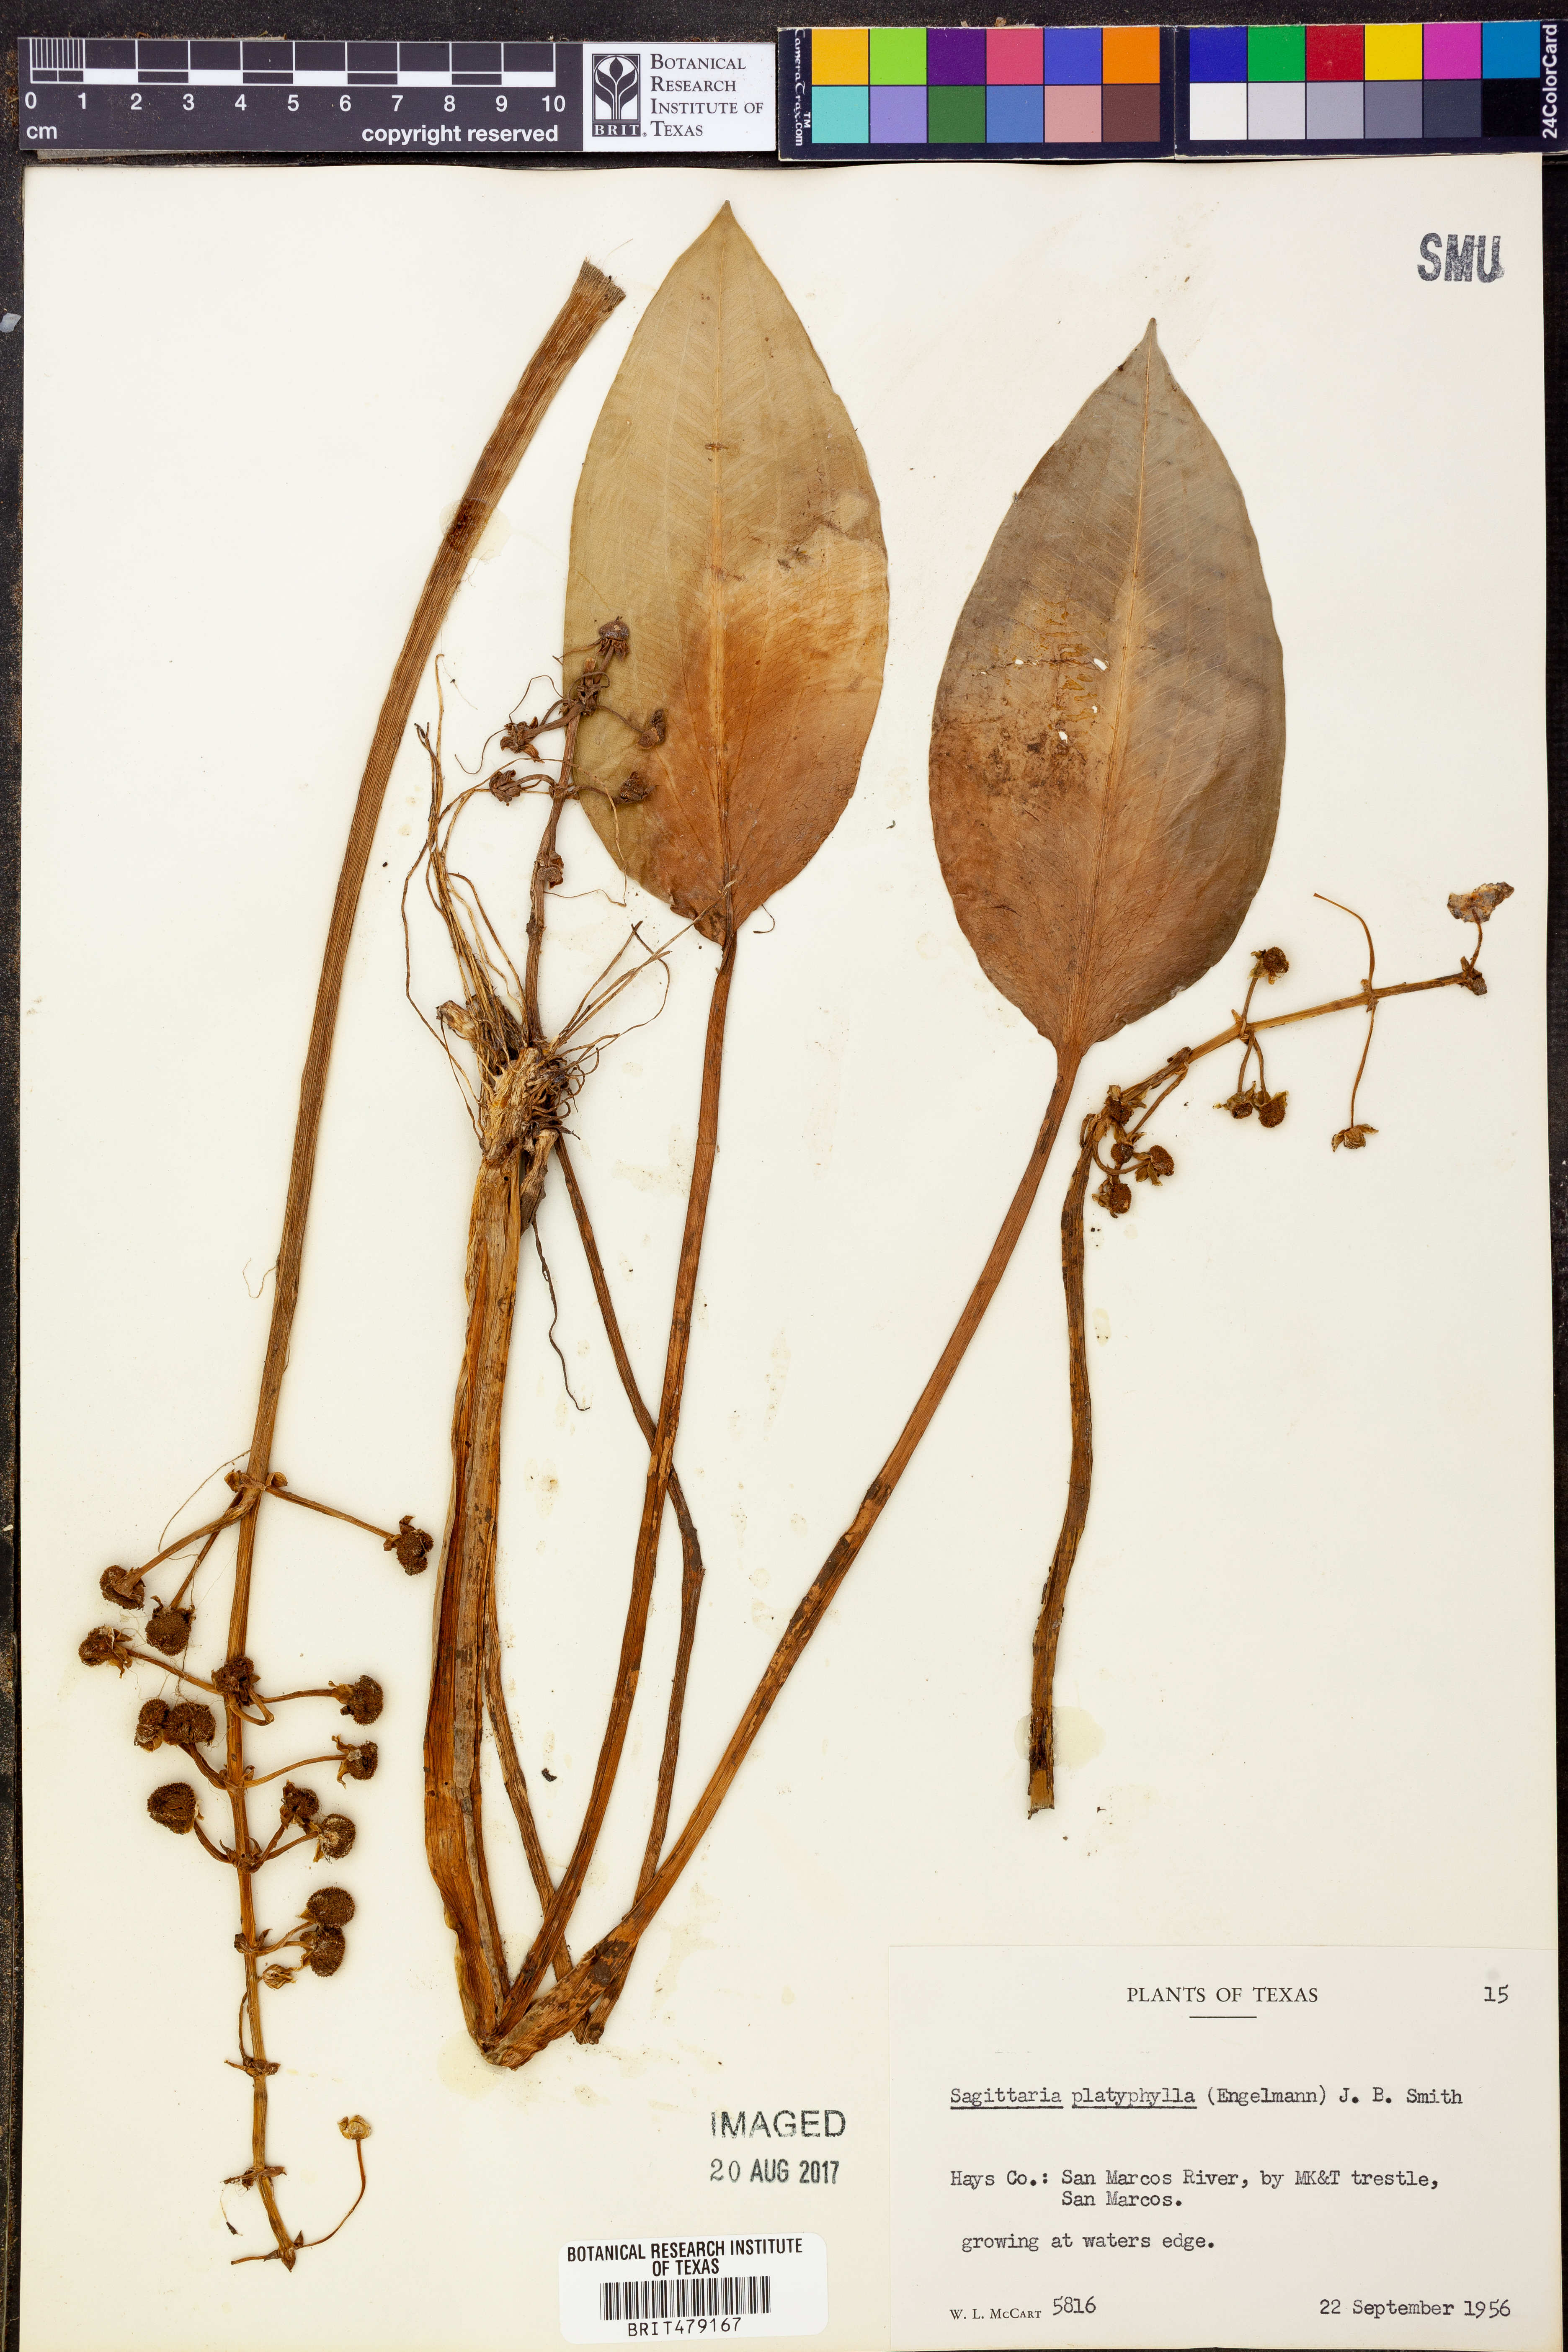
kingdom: Plantae
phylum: Tracheophyta
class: Liliopsida
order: Alismatales
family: Alismataceae
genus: Sagittaria
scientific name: Sagittaria platyphylla
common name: Broad-leaf arrowhead
